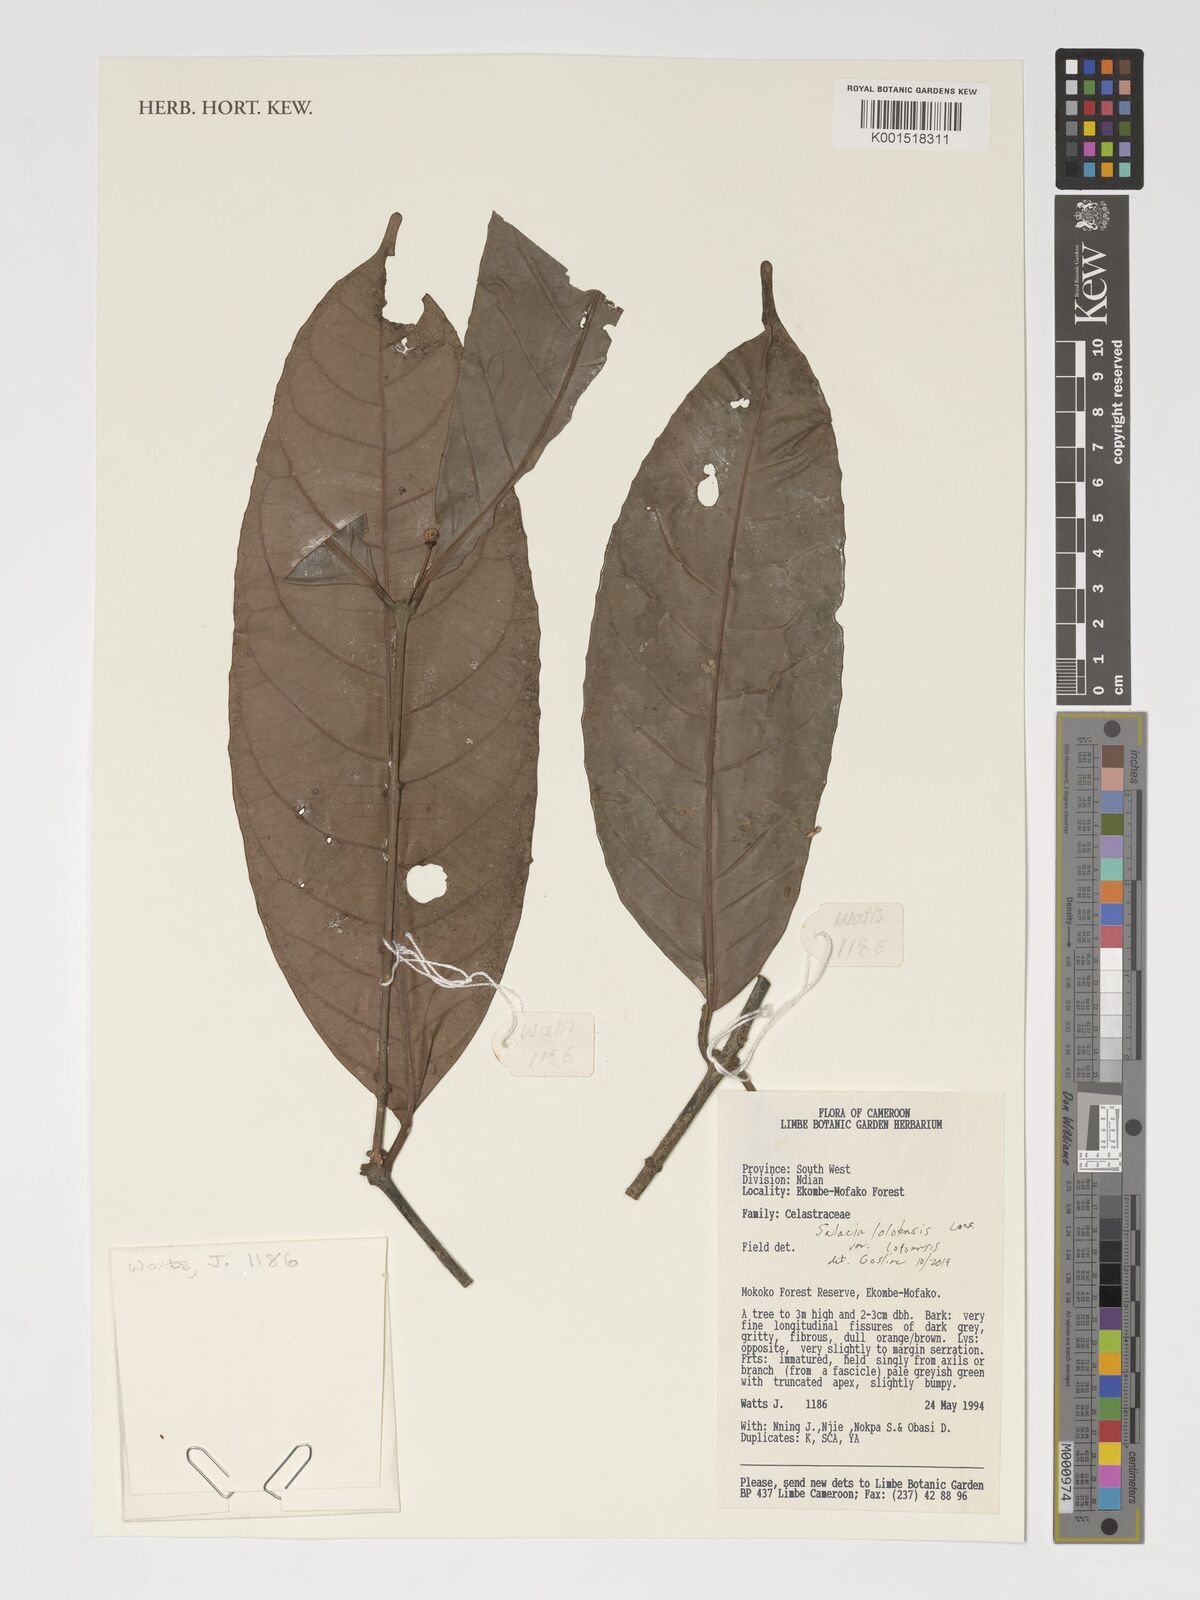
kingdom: Plantae
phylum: Tracheophyta
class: Magnoliopsida
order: Celastrales
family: Celastraceae
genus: Salacia
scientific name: Salacia loloensis
